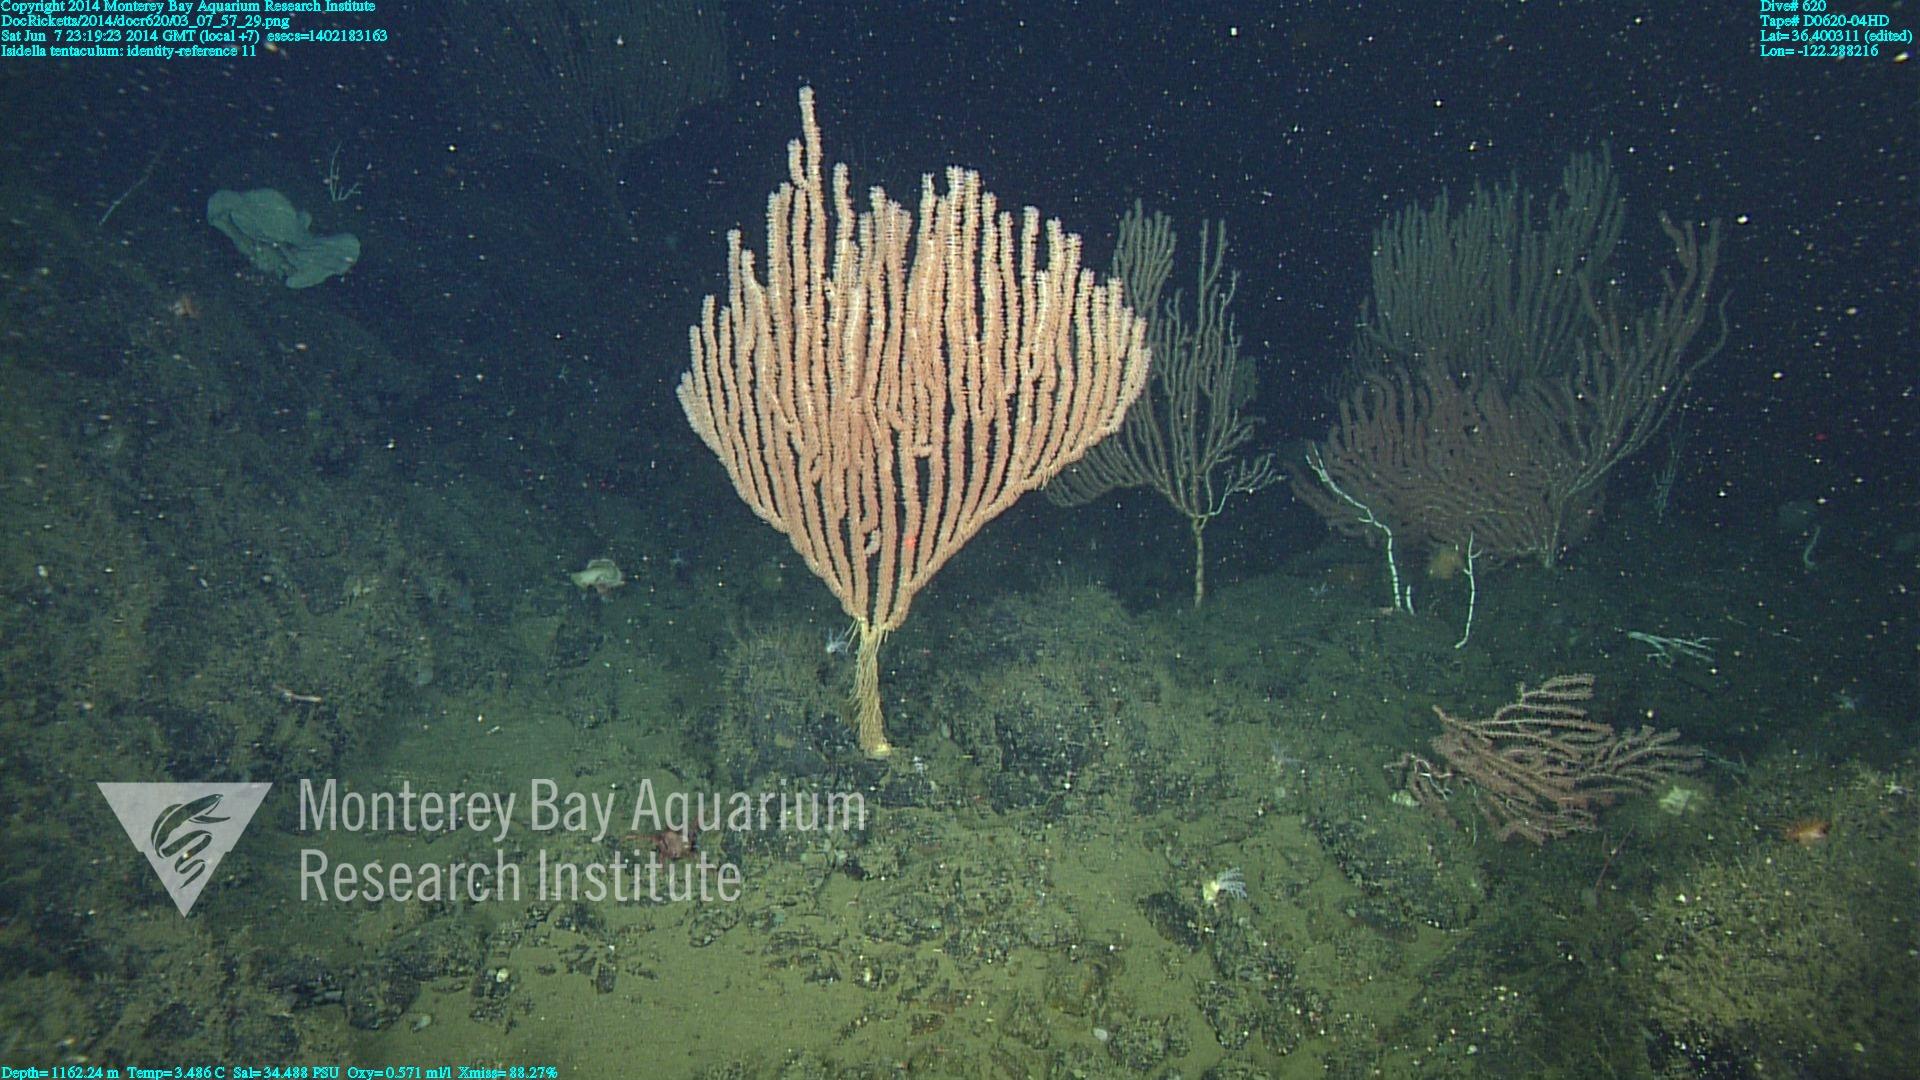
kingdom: Animalia
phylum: Cnidaria
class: Anthozoa
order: Scleralcyonacea
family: Keratoisididae
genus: Isidella
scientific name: Isidella tentaculum
